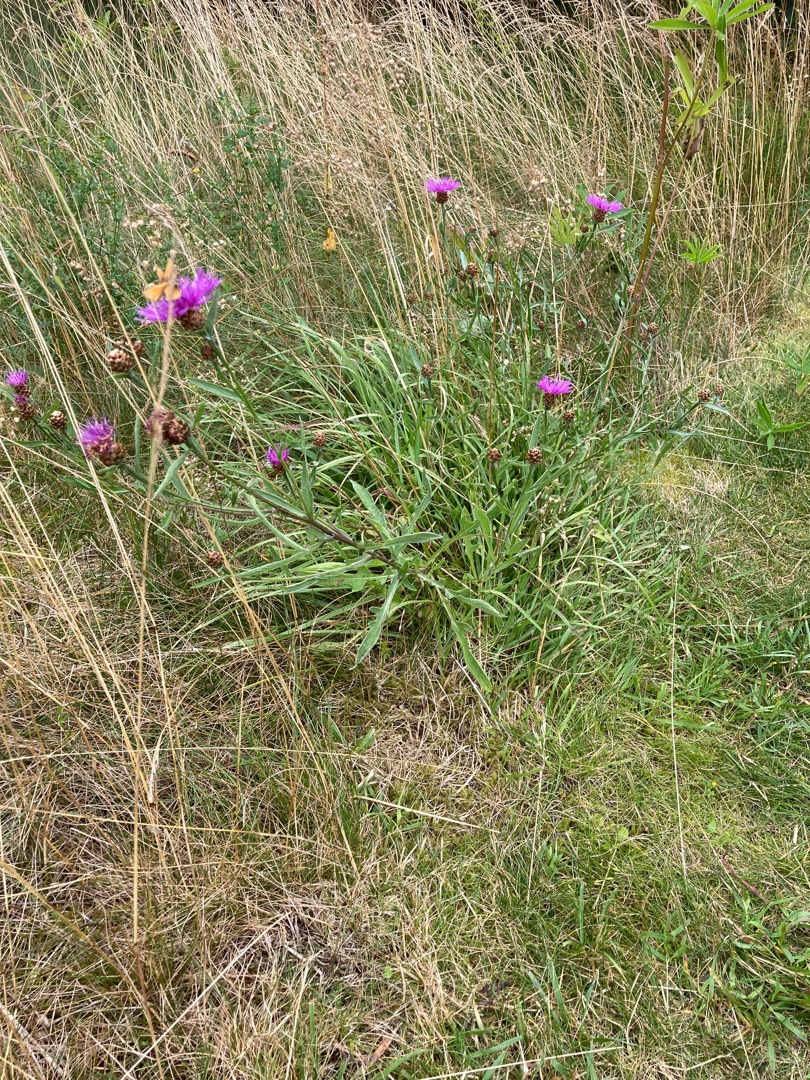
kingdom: Plantae
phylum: Tracheophyta
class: Magnoliopsida
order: Asterales
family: Asteraceae
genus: Centaurea
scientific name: Centaurea jacea
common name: Almindelig knopurt
